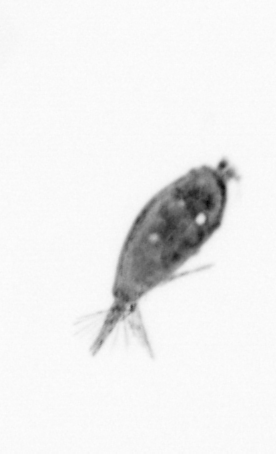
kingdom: Animalia
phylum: Arthropoda
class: Maxillopoda
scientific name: Maxillopoda
